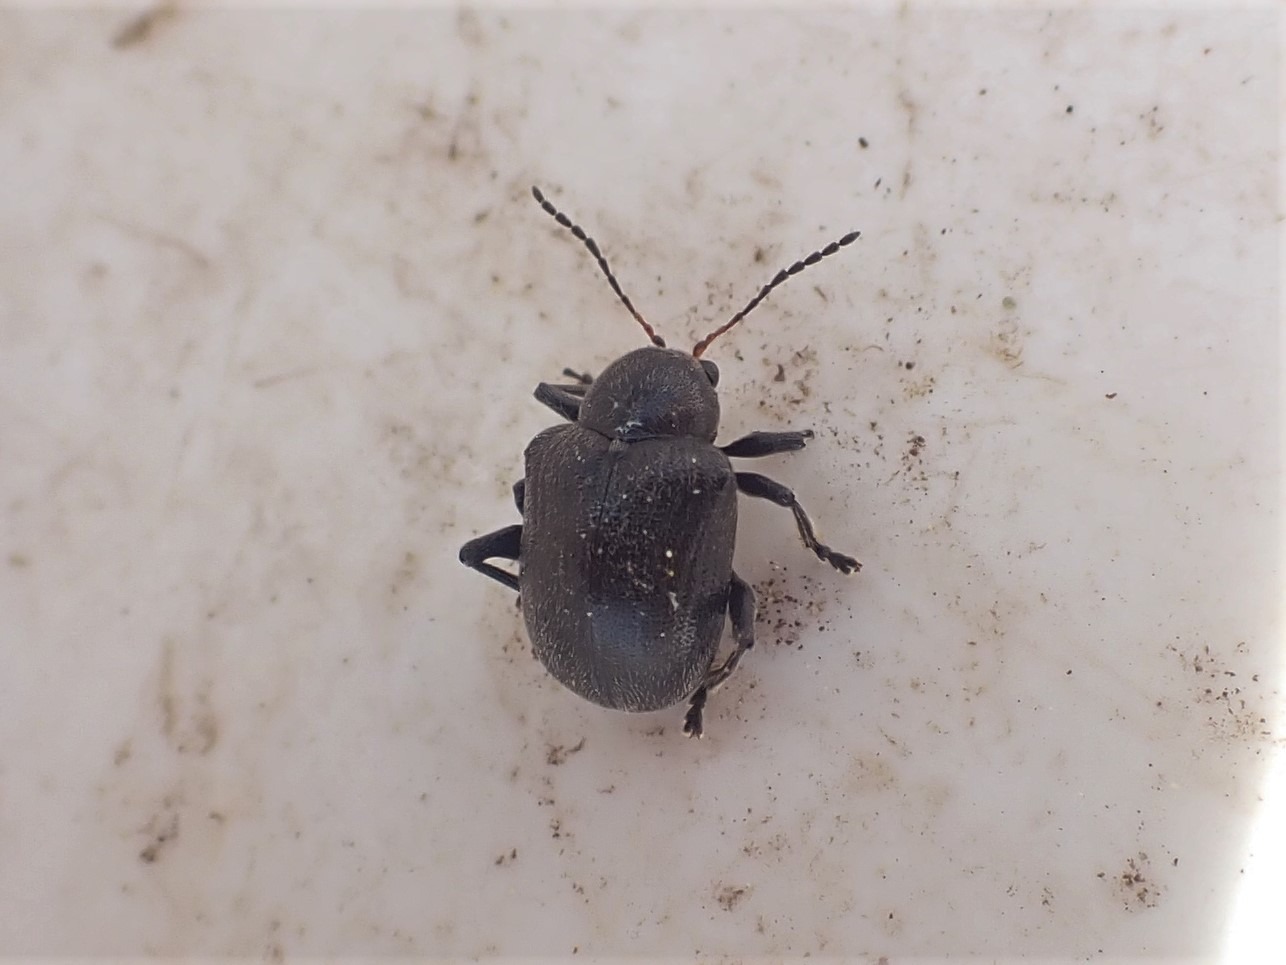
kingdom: Animalia
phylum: Arthropoda
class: Insecta
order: Coleoptera
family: Chrysomelidae
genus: Bromius
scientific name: Bromius obscurus
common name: Gederamsbille
